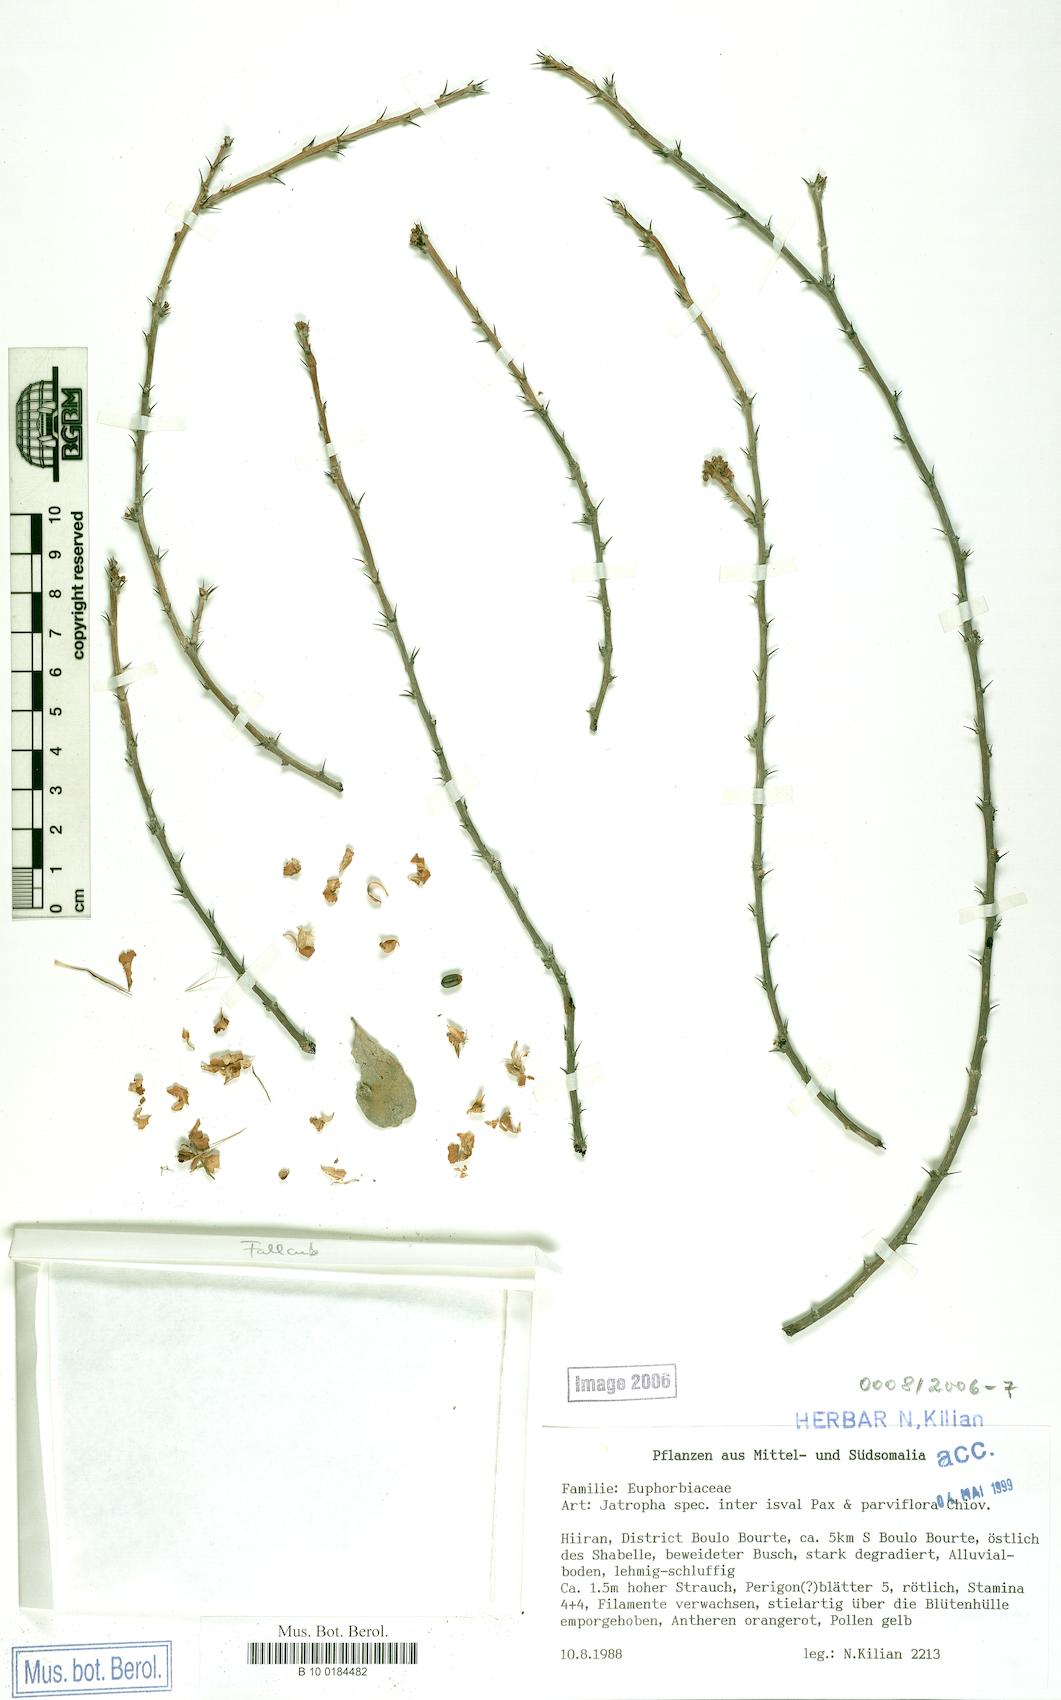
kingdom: Plantae
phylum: Tracheophyta
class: Magnoliopsida
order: Malpighiales
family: Euphorbiaceae
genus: Jatropha
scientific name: Jatropha rivae
